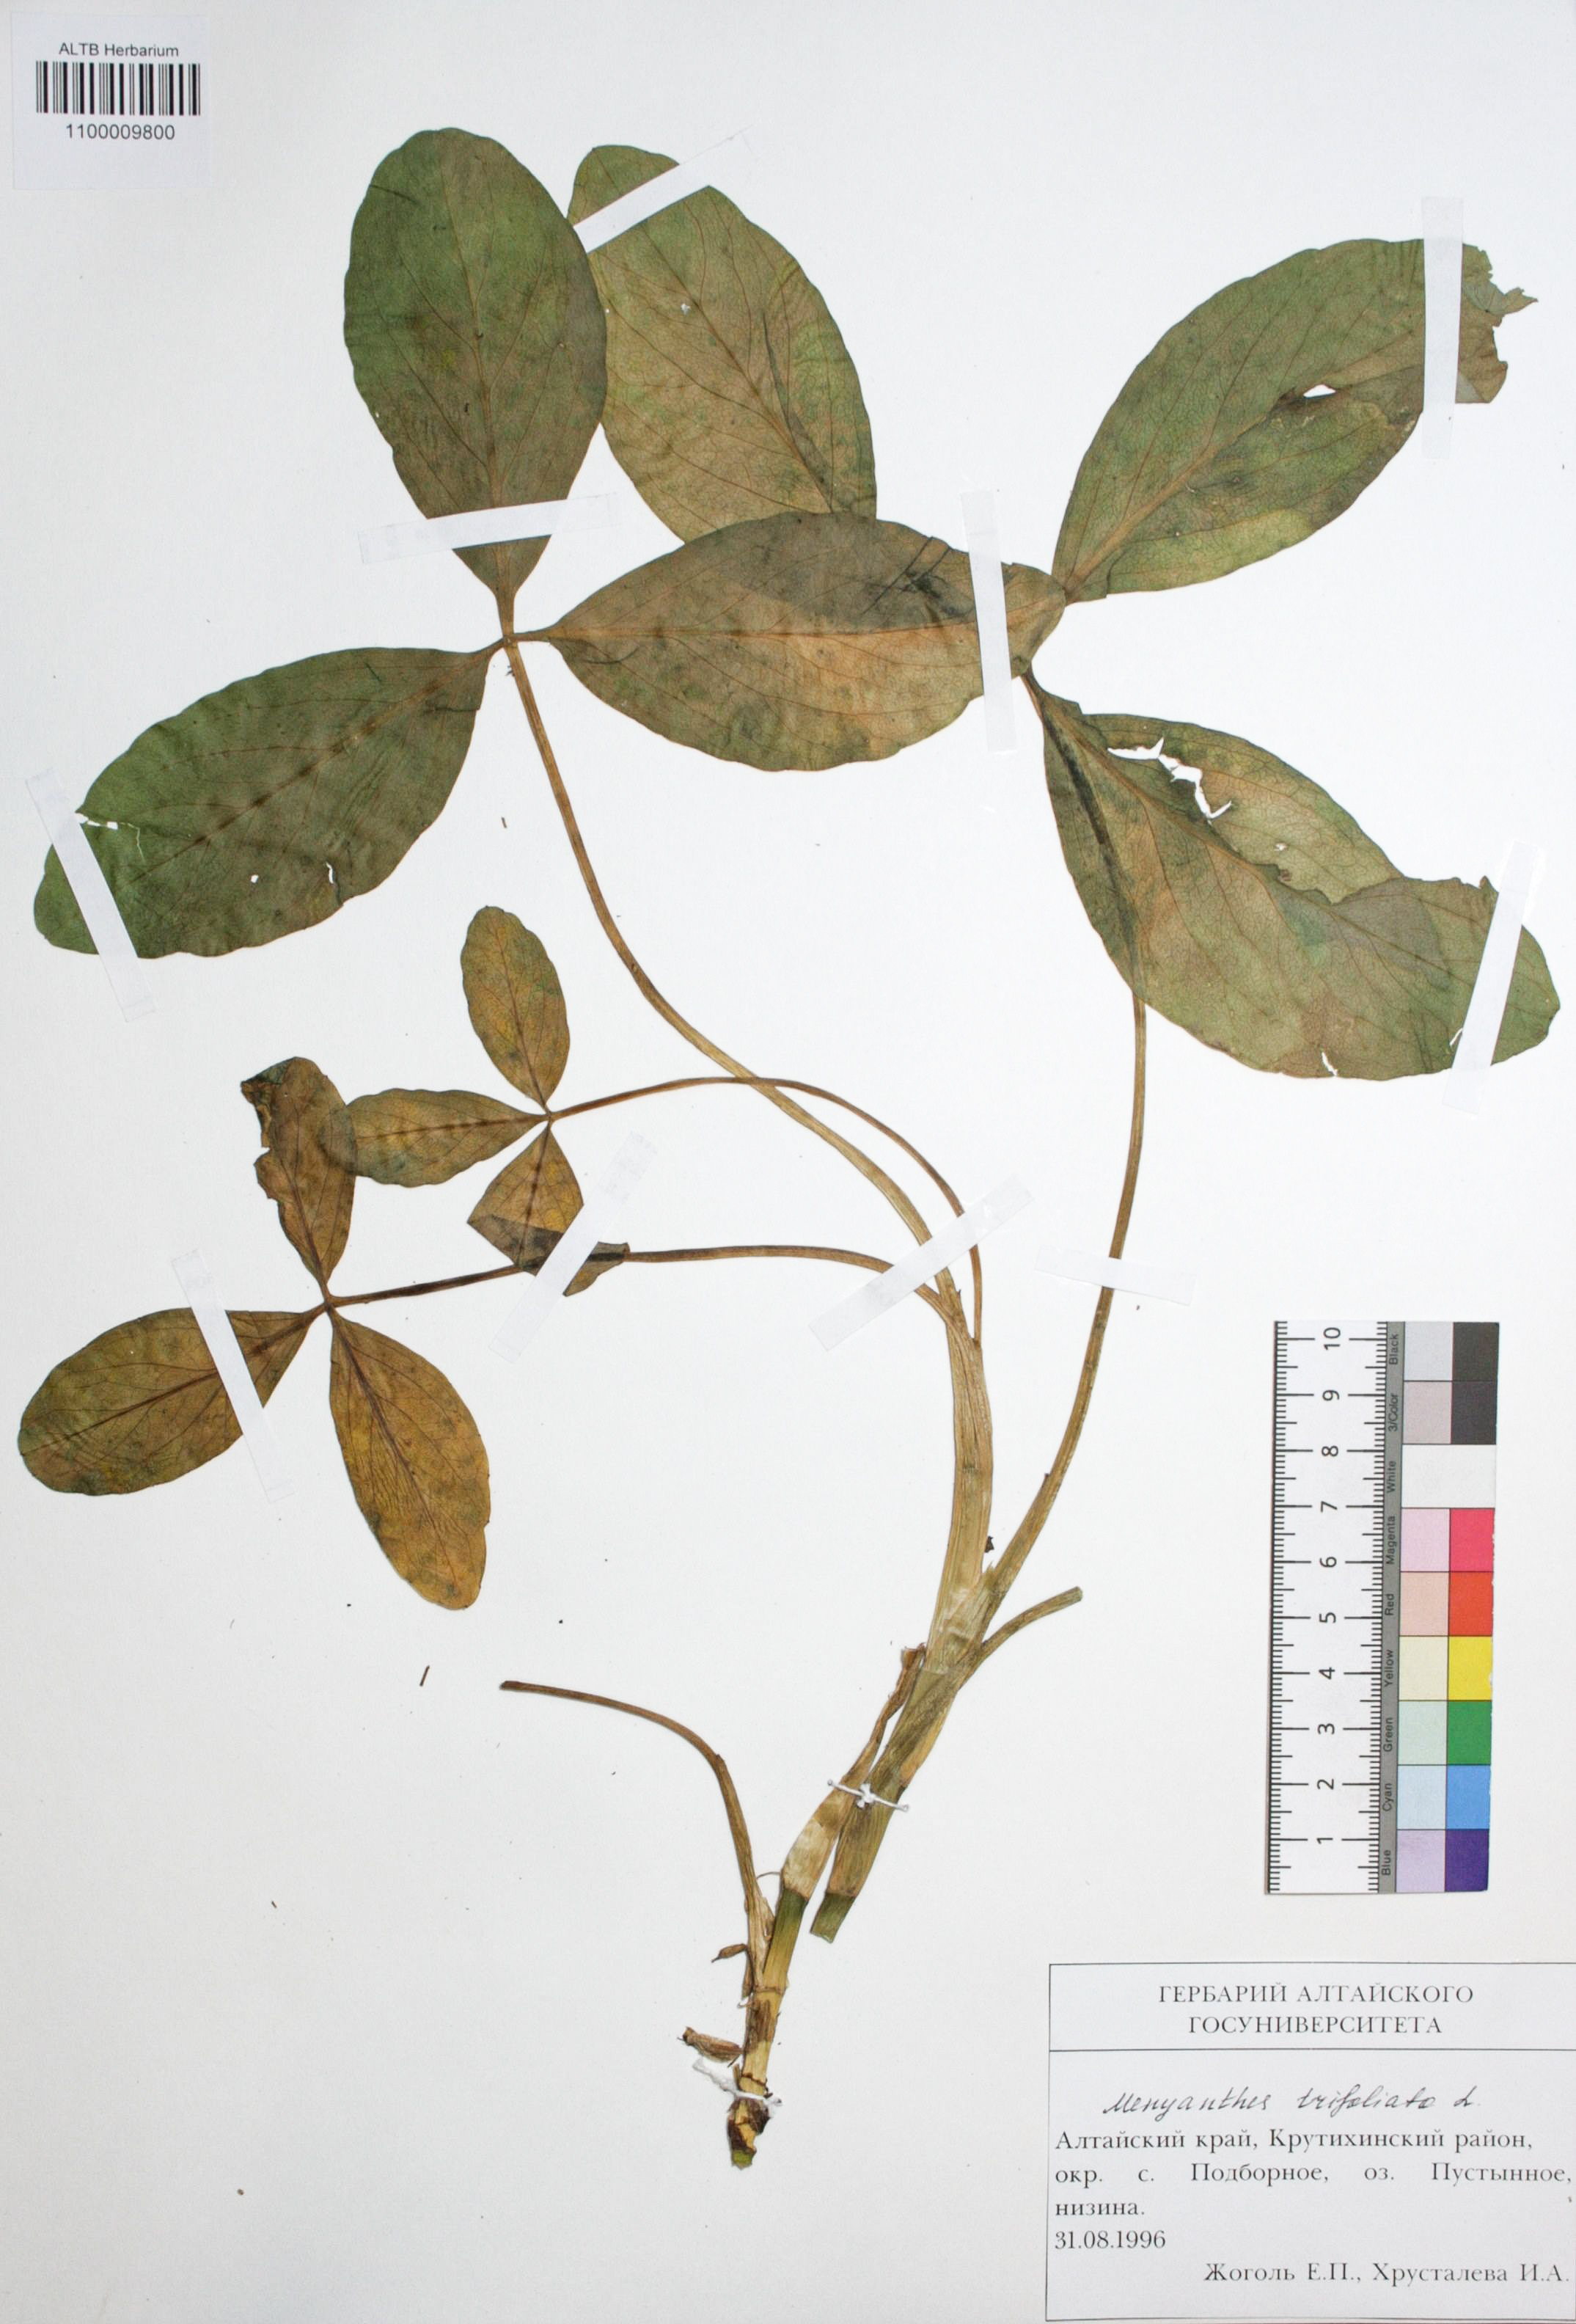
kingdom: Plantae
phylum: Tracheophyta
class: Magnoliopsida
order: Asterales
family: Menyanthaceae
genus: Menyanthes
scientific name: Menyanthes trifoliata
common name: Bogbean
